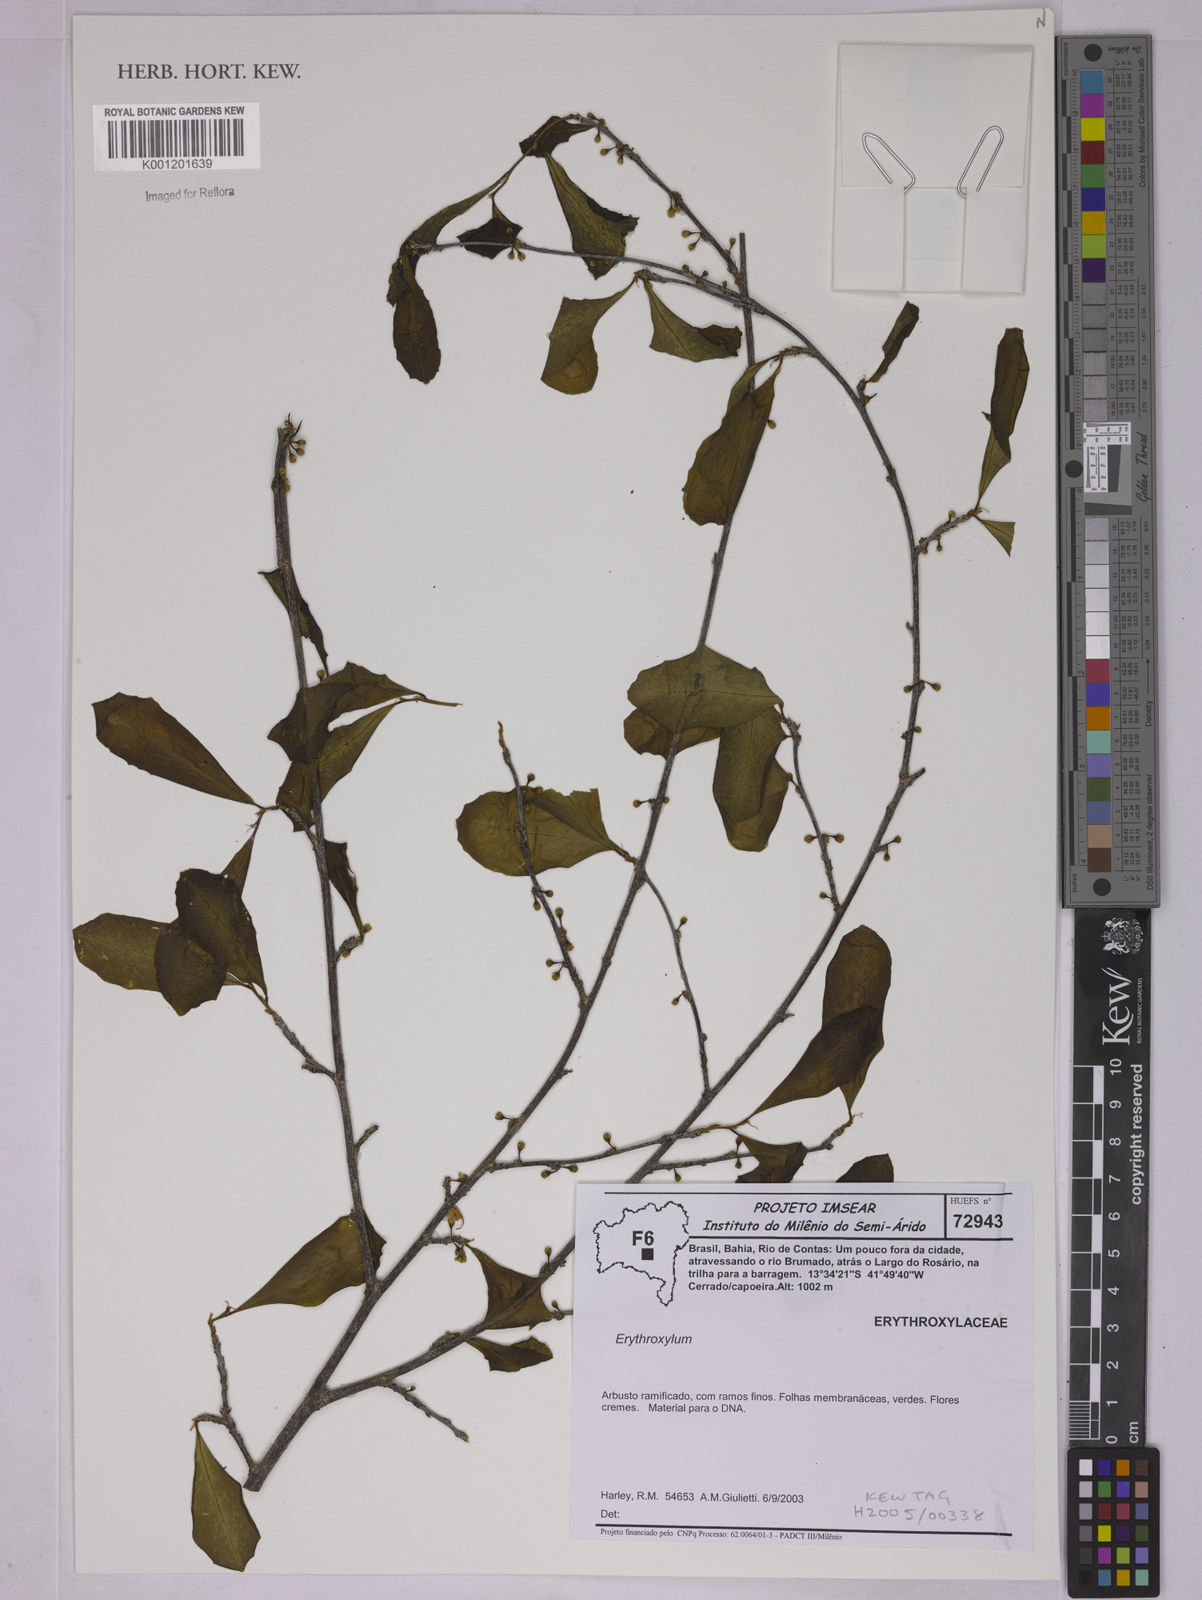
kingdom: Plantae
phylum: Tracheophyta
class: Magnoliopsida
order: Malpighiales
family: Erythroxylaceae
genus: Erythroxylum
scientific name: Erythroxylum
